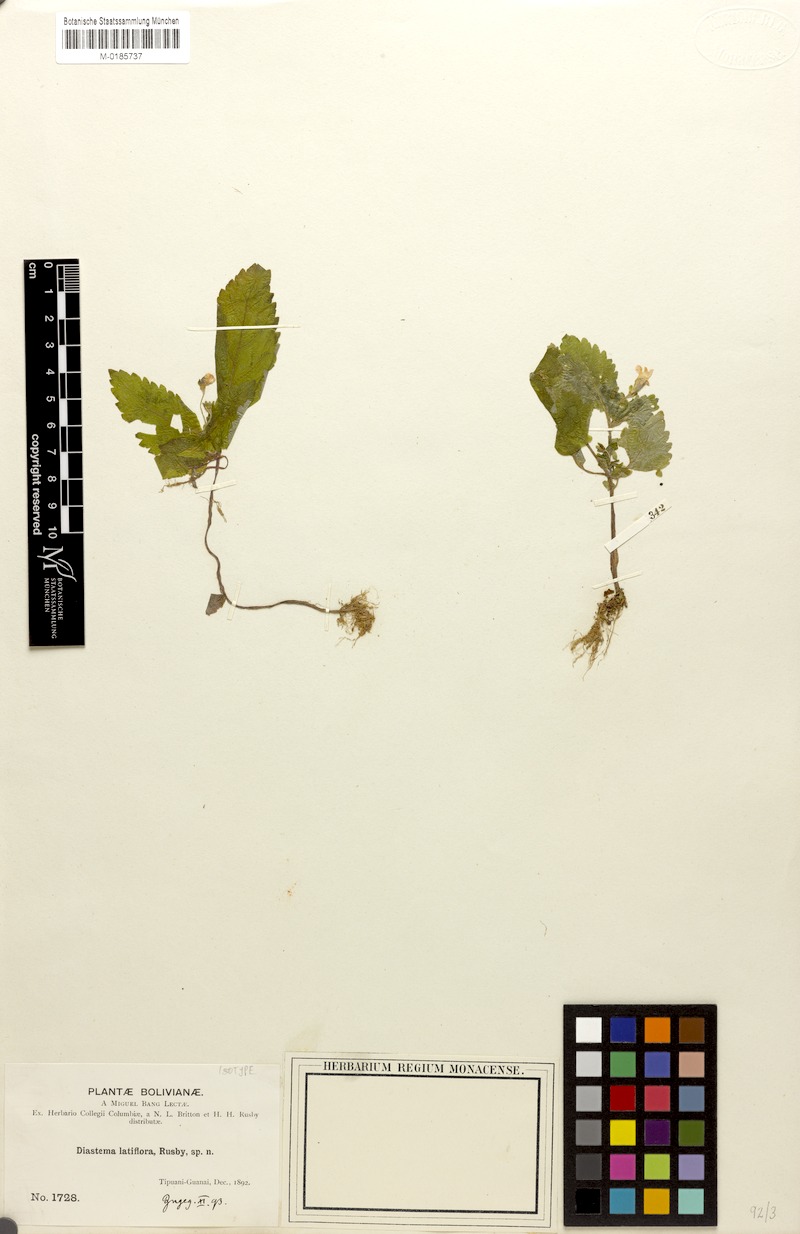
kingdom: Plantae
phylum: Tracheophyta
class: Magnoliopsida
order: Lamiales
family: Gesneriaceae
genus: Diastema
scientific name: Diastema latiflorum
